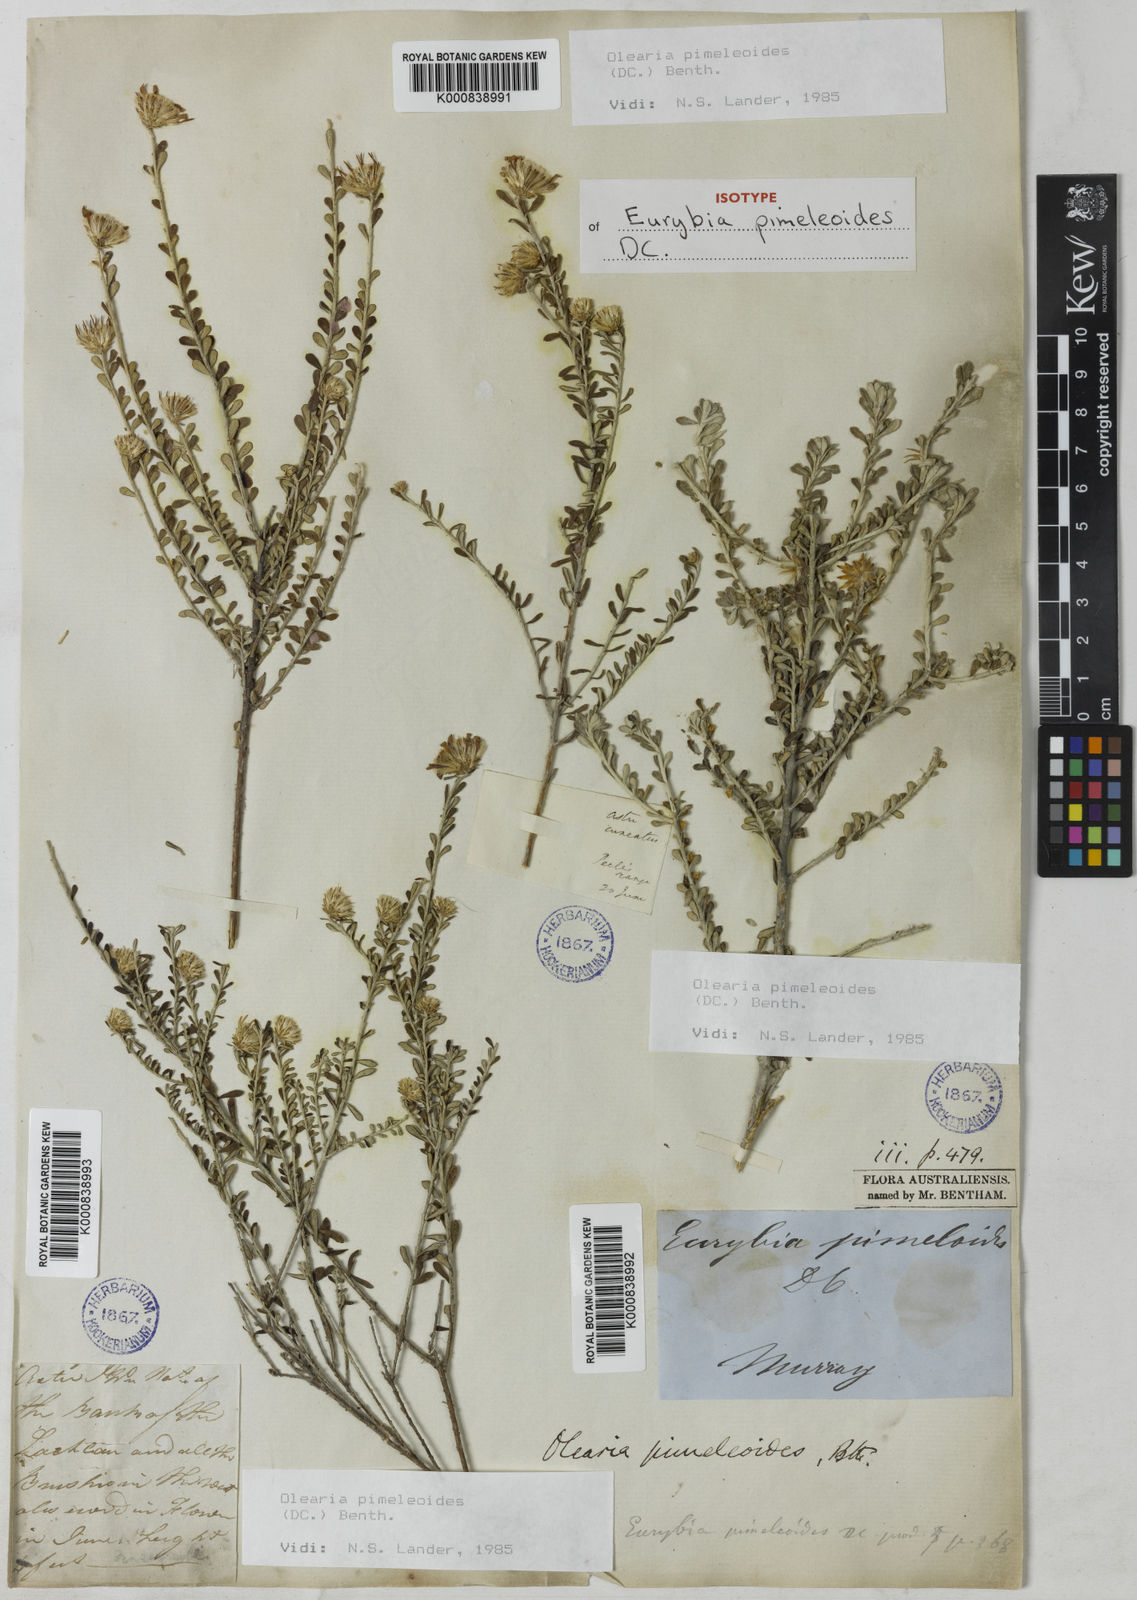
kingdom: Plantae
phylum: Tracheophyta
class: Magnoliopsida
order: Asterales
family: Asteraceae
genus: Olearia
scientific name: Olearia pimeleoides
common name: Showy daisybush
